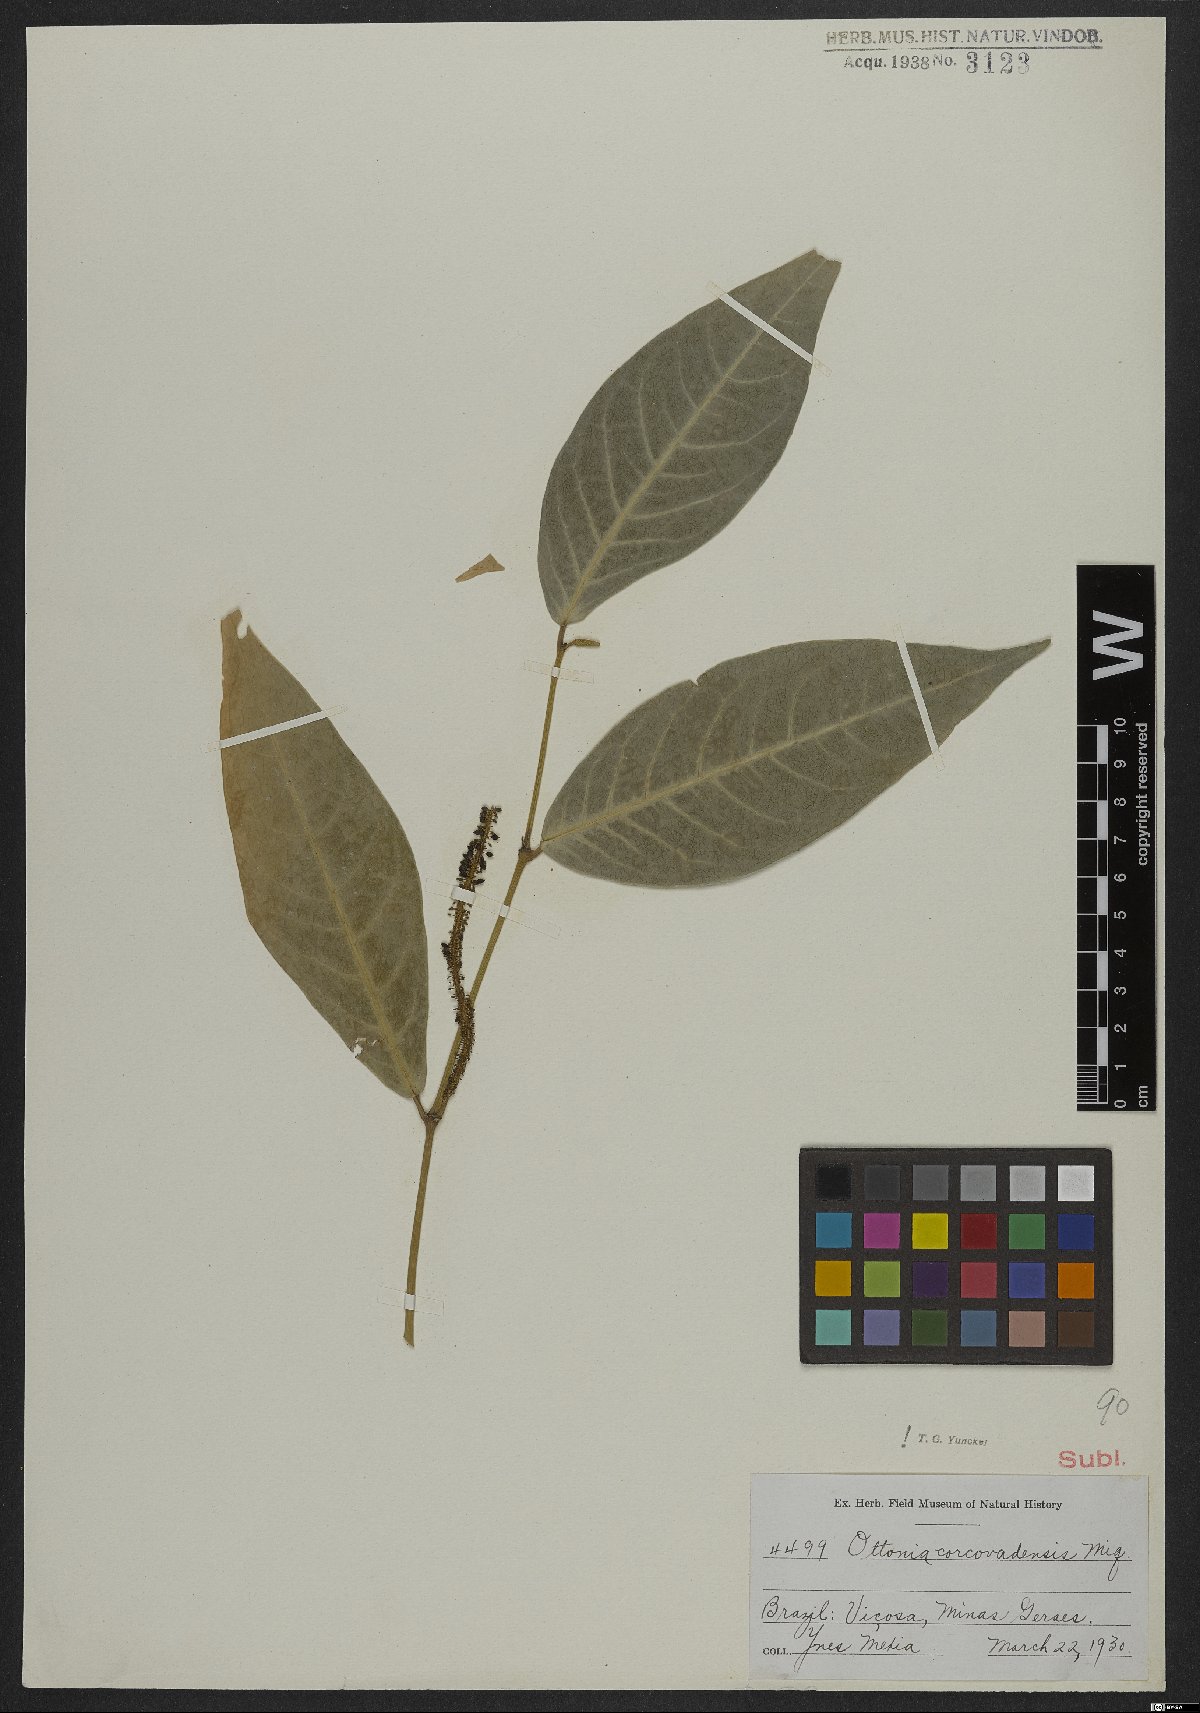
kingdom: Plantae
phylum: Tracheophyta
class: Magnoliopsida
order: Piperales
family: Piperaceae
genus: Piper
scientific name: Piper corcovadense
